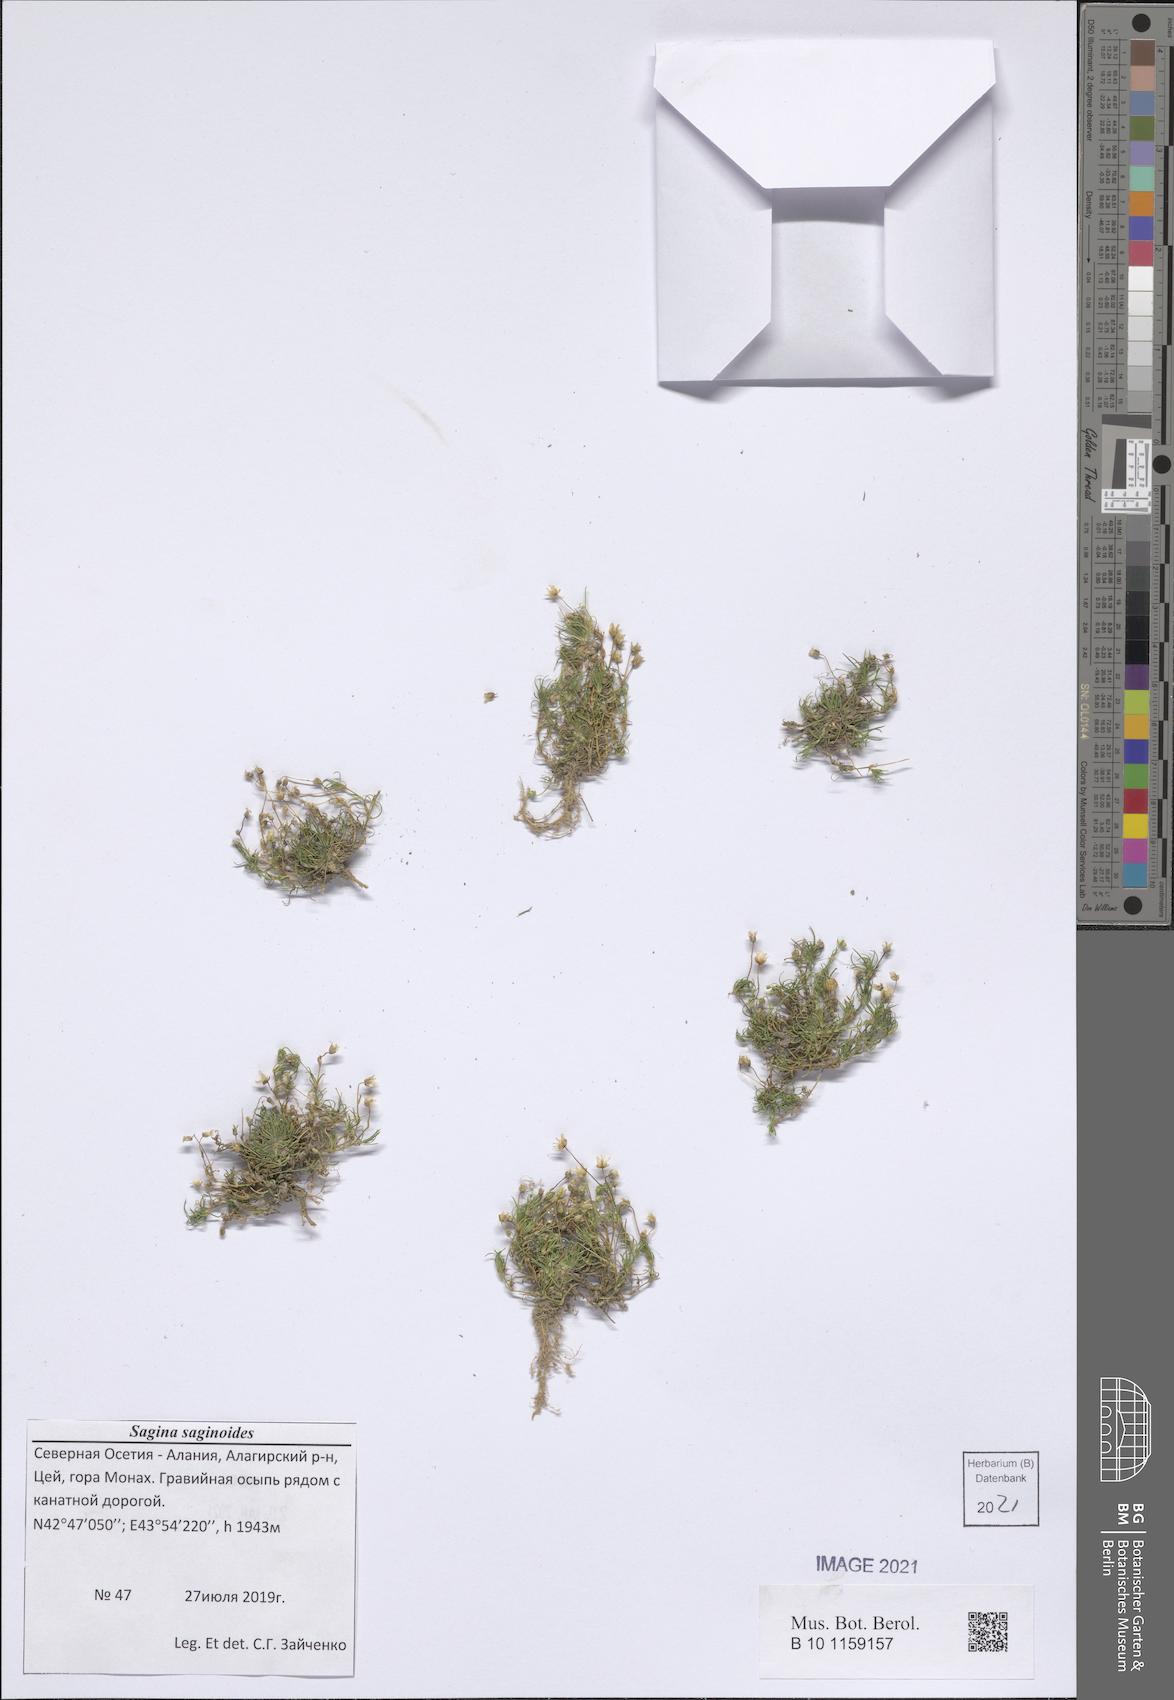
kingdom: Plantae
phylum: Tracheophyta
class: Magnoliopsida
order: Caryophyllales
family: Caryophyllaceae
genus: Sagina
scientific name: Sagina saginoides
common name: Alpine pearlwort
